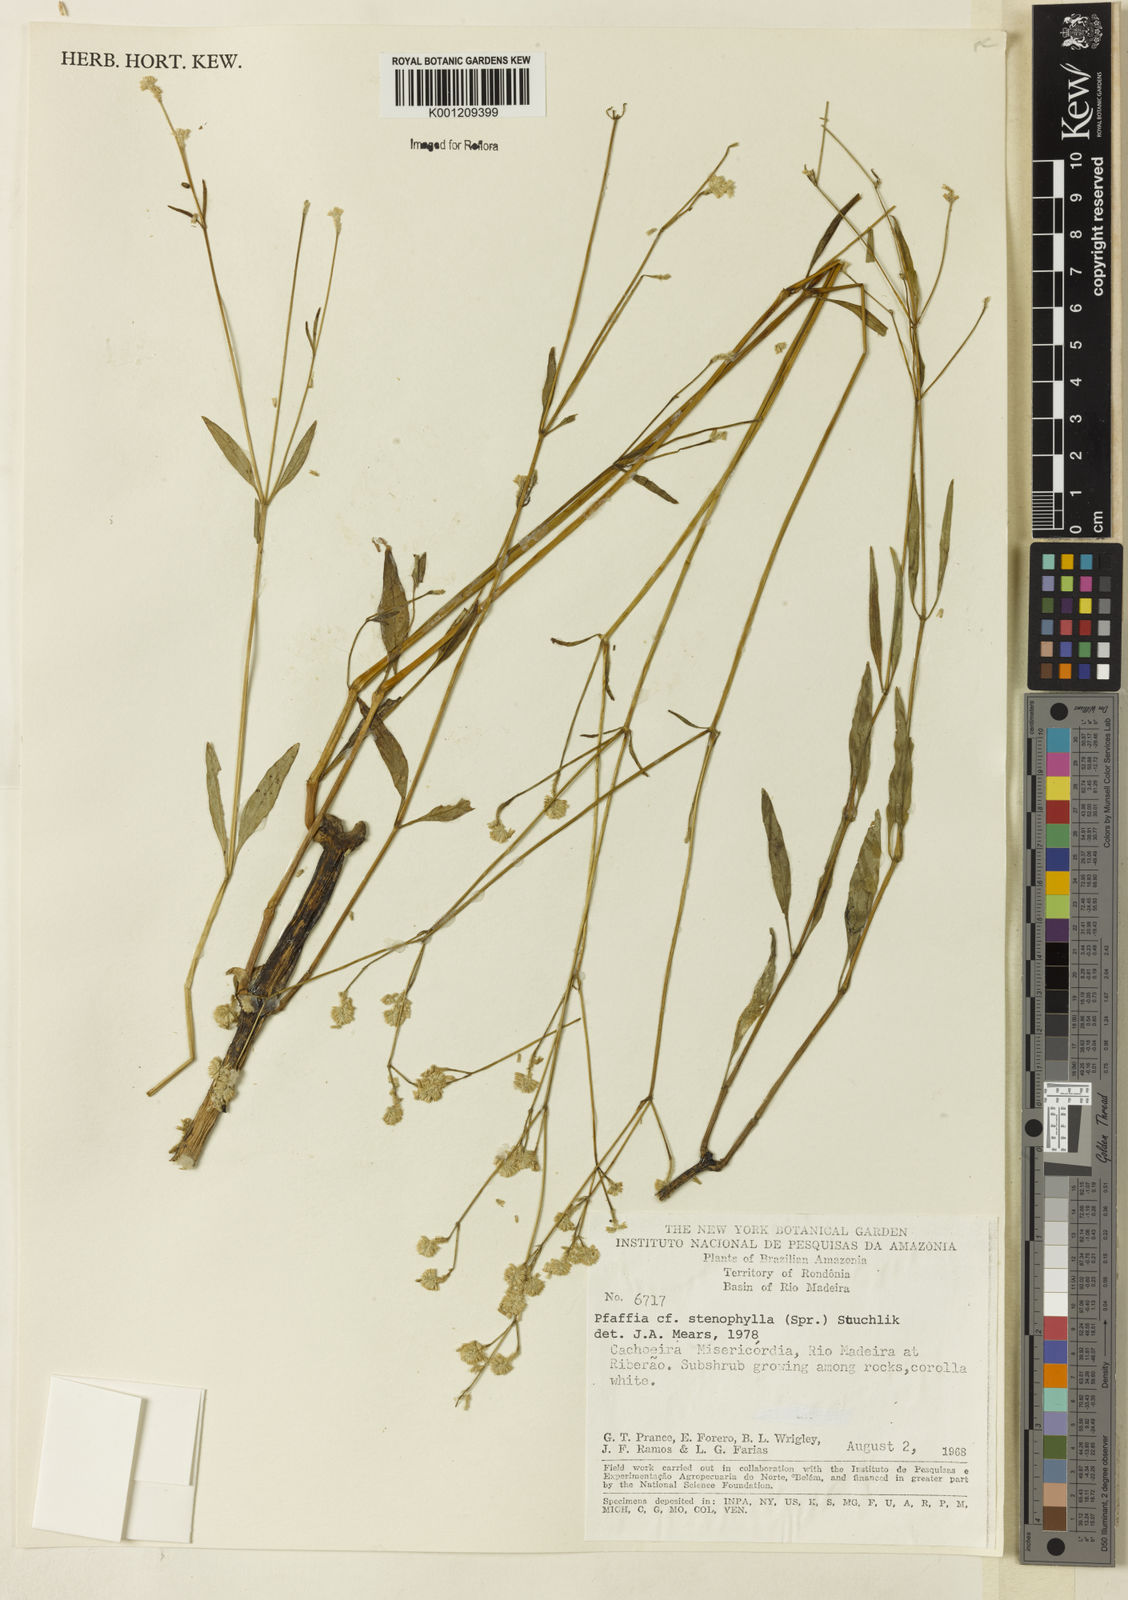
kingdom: Plantae
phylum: Tracheophyta
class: Magnoliopsida
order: Caryophyllales
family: Amaranthaceae
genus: Pfaffia
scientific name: Pfaffia
